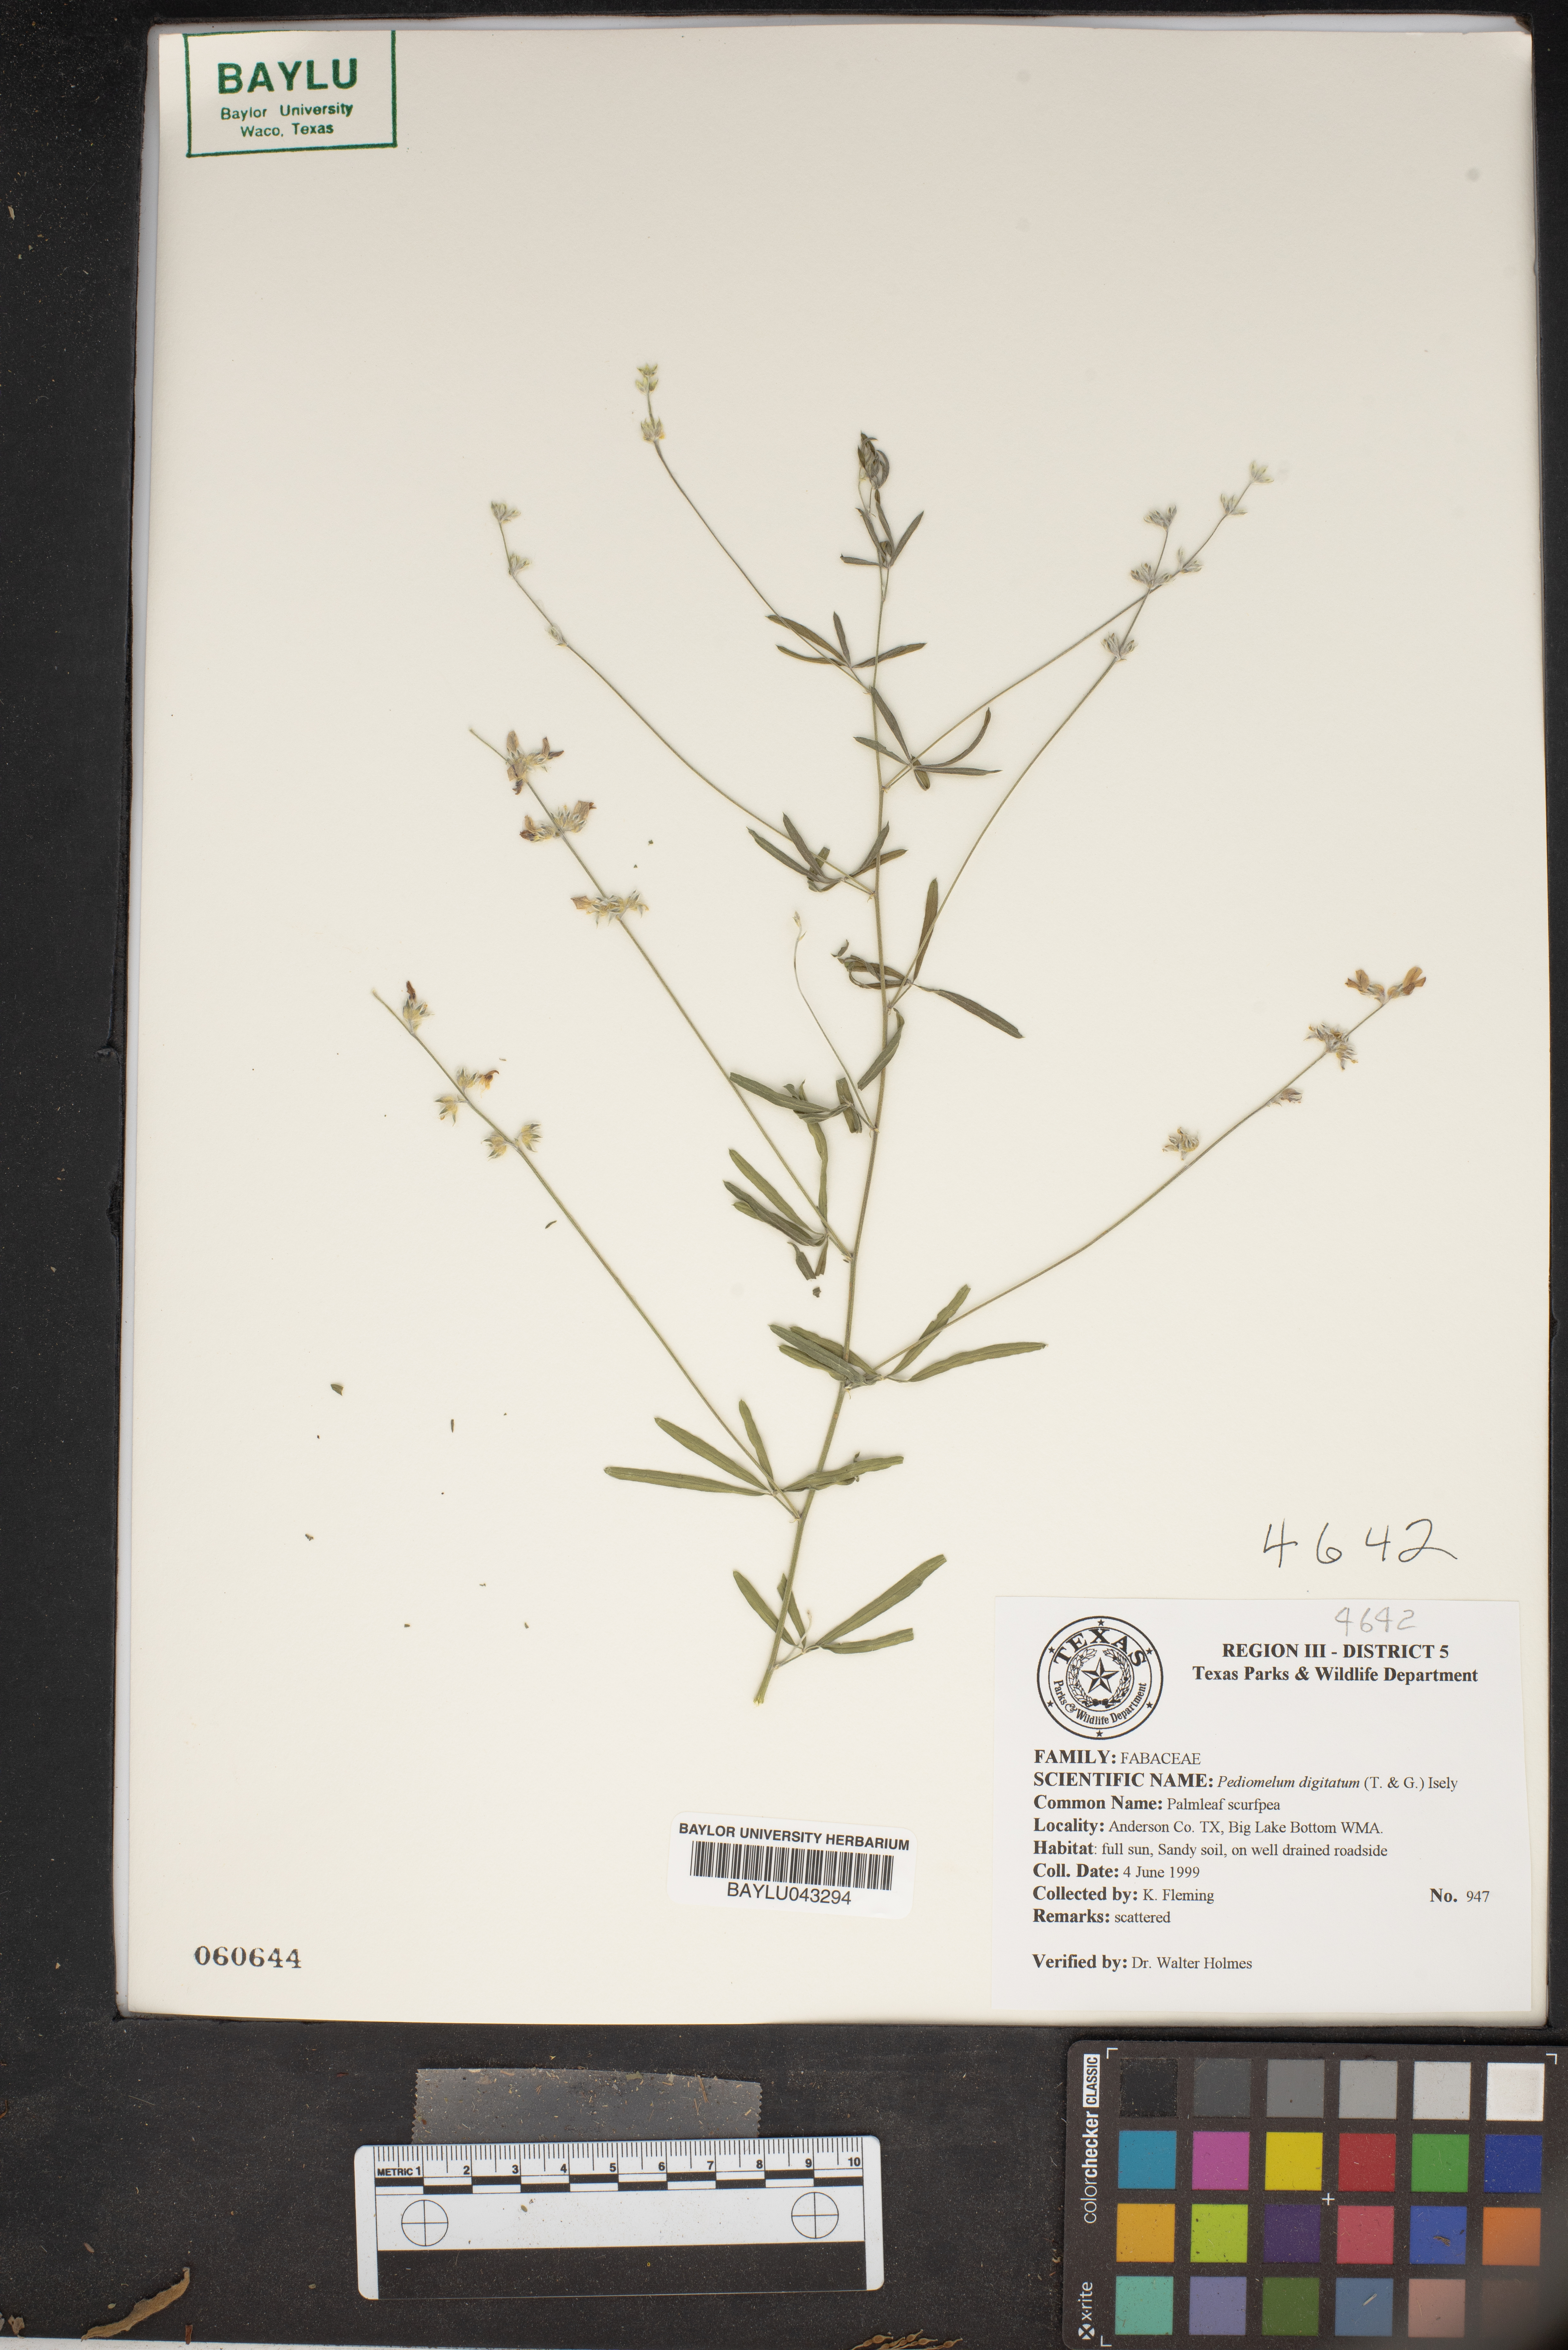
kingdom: Plantae
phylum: Tracheophyta
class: Magnoliopsida
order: Fabales
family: Fabaceae
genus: Pediomelum
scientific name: Pediomelum digitatum
